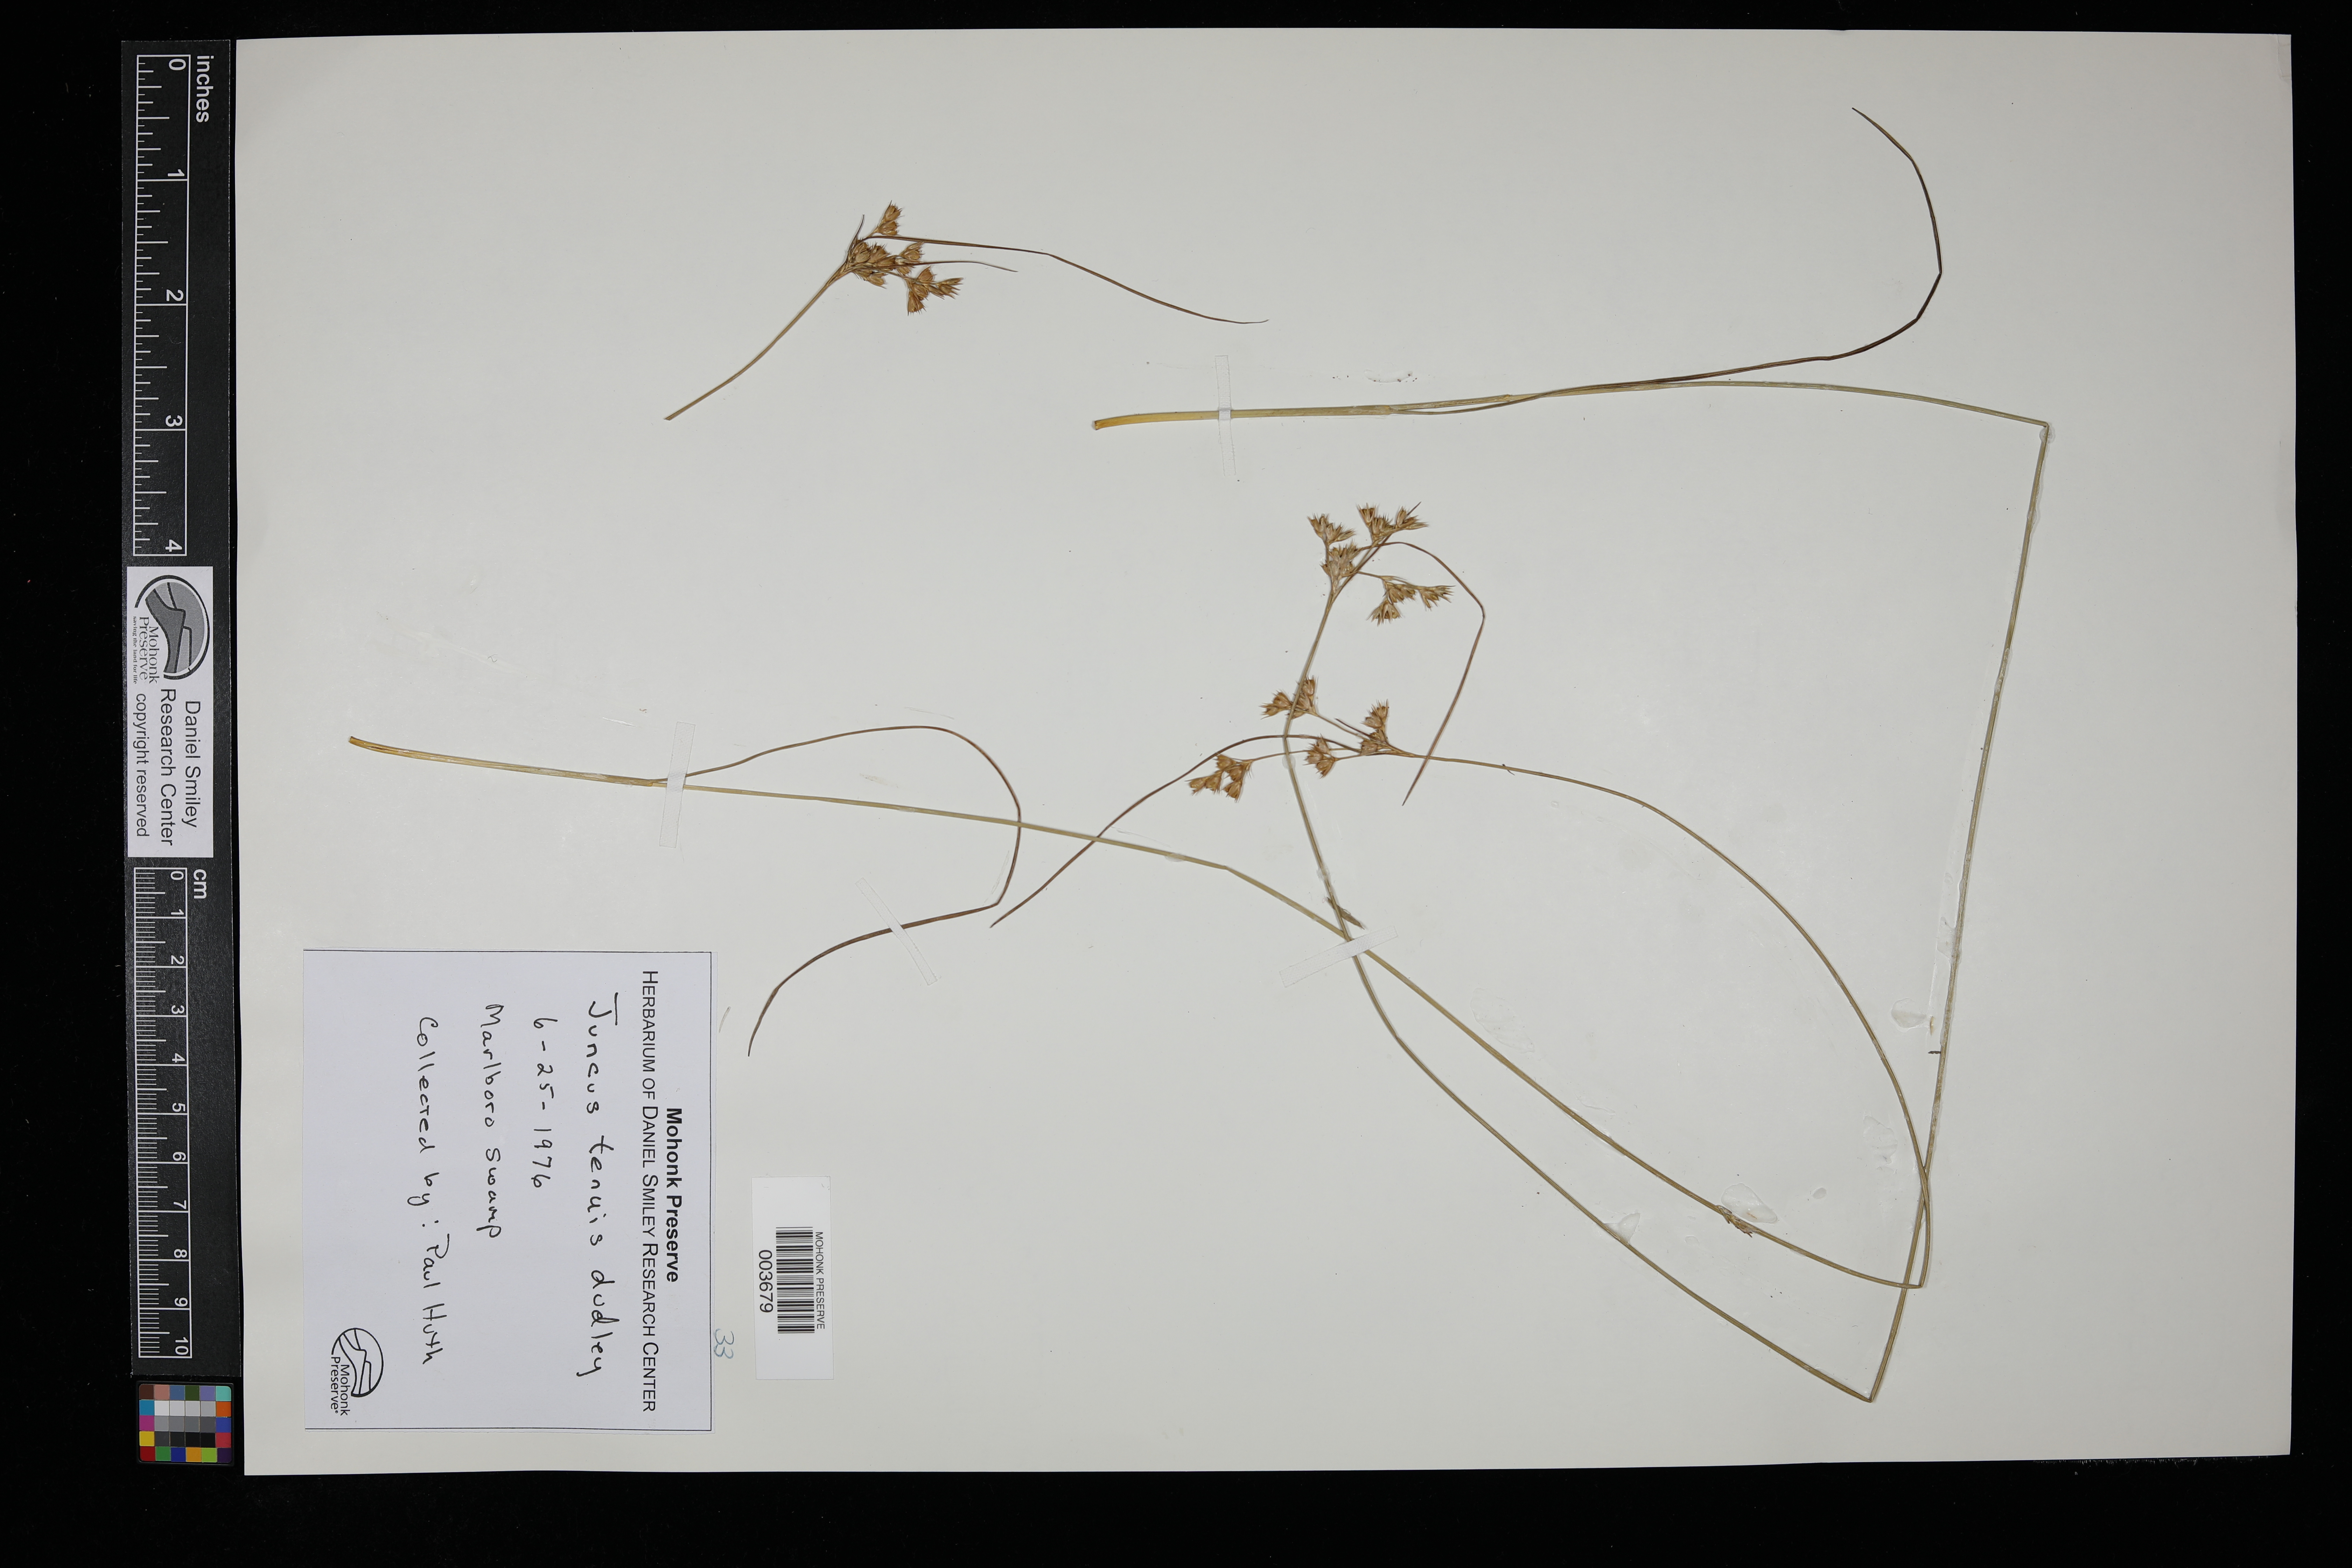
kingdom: Plantae
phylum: Tracheophyta
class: Liliopsida
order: Poales
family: Juncaceae
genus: Juncus
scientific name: Juncus tenuis
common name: Slender rush
